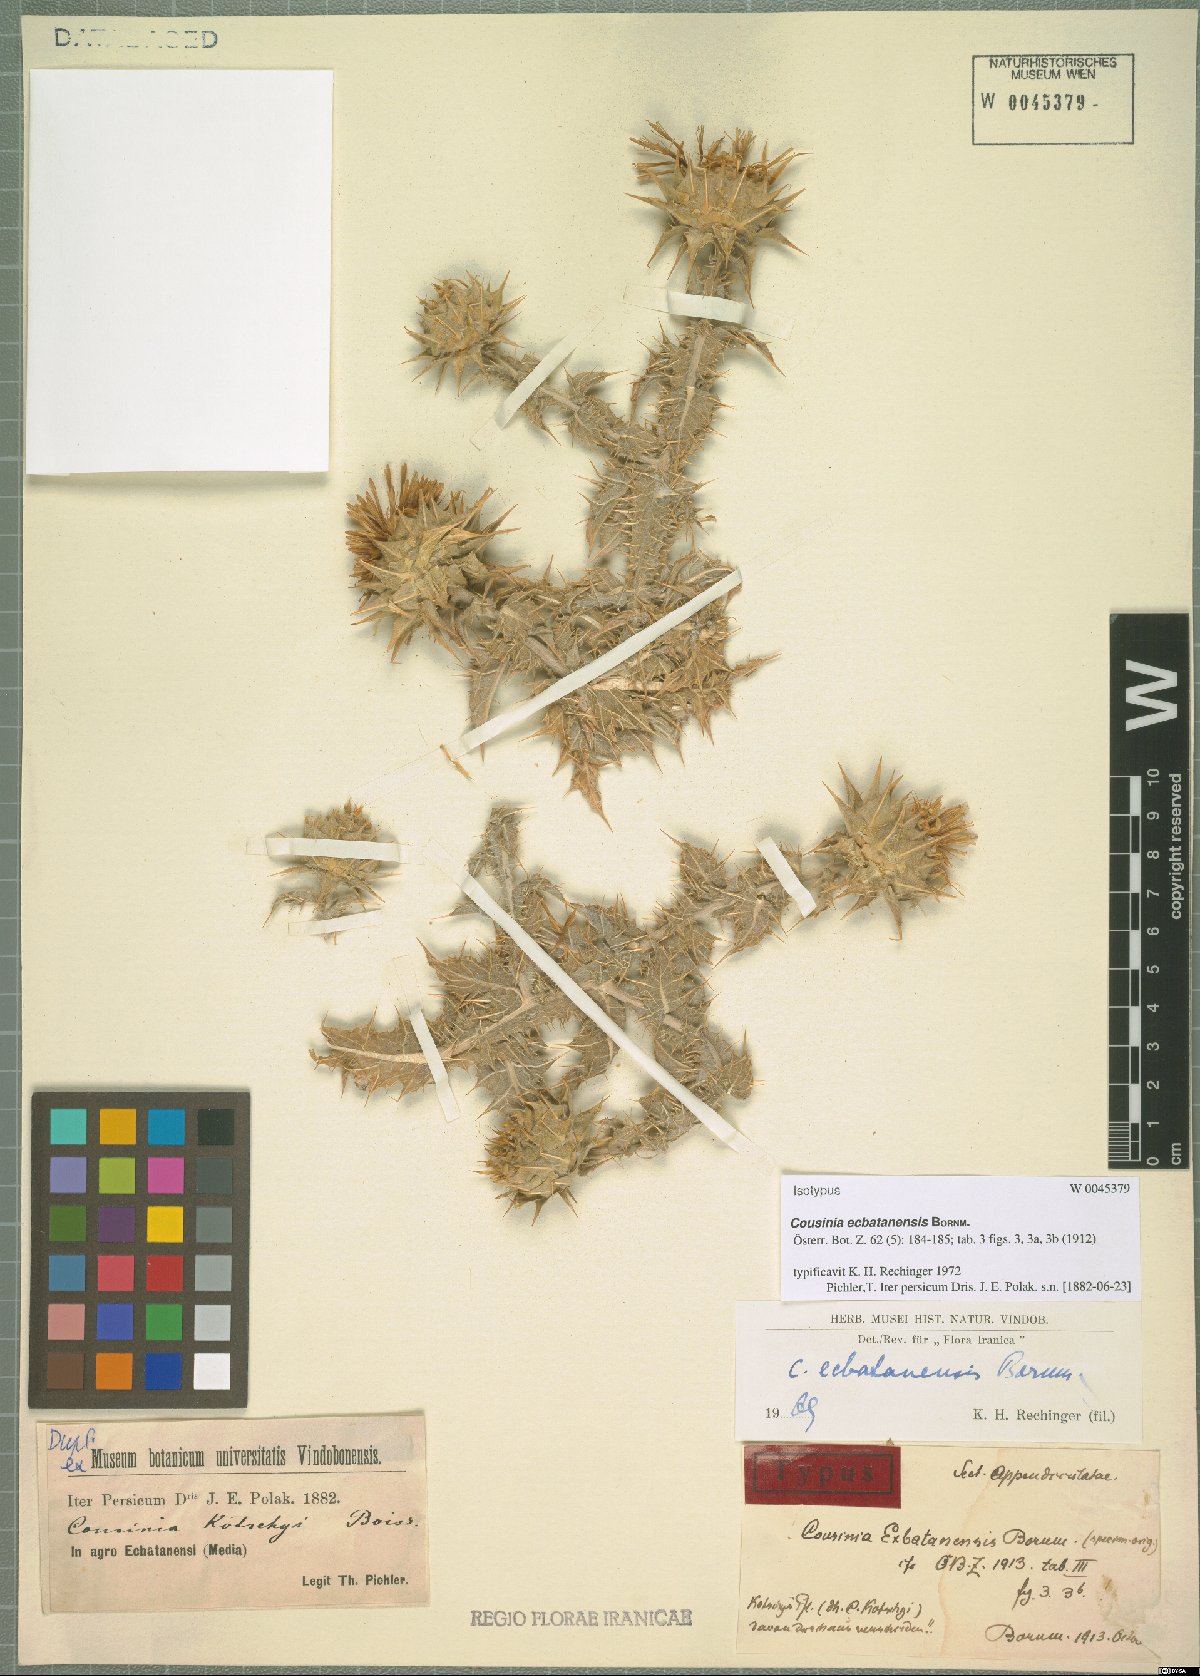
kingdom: Plantae
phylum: Tracheophyta
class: Magnoliopsida
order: Asterales
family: Asteraceae
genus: Cousinia
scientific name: Cousinia ecbatanensis
